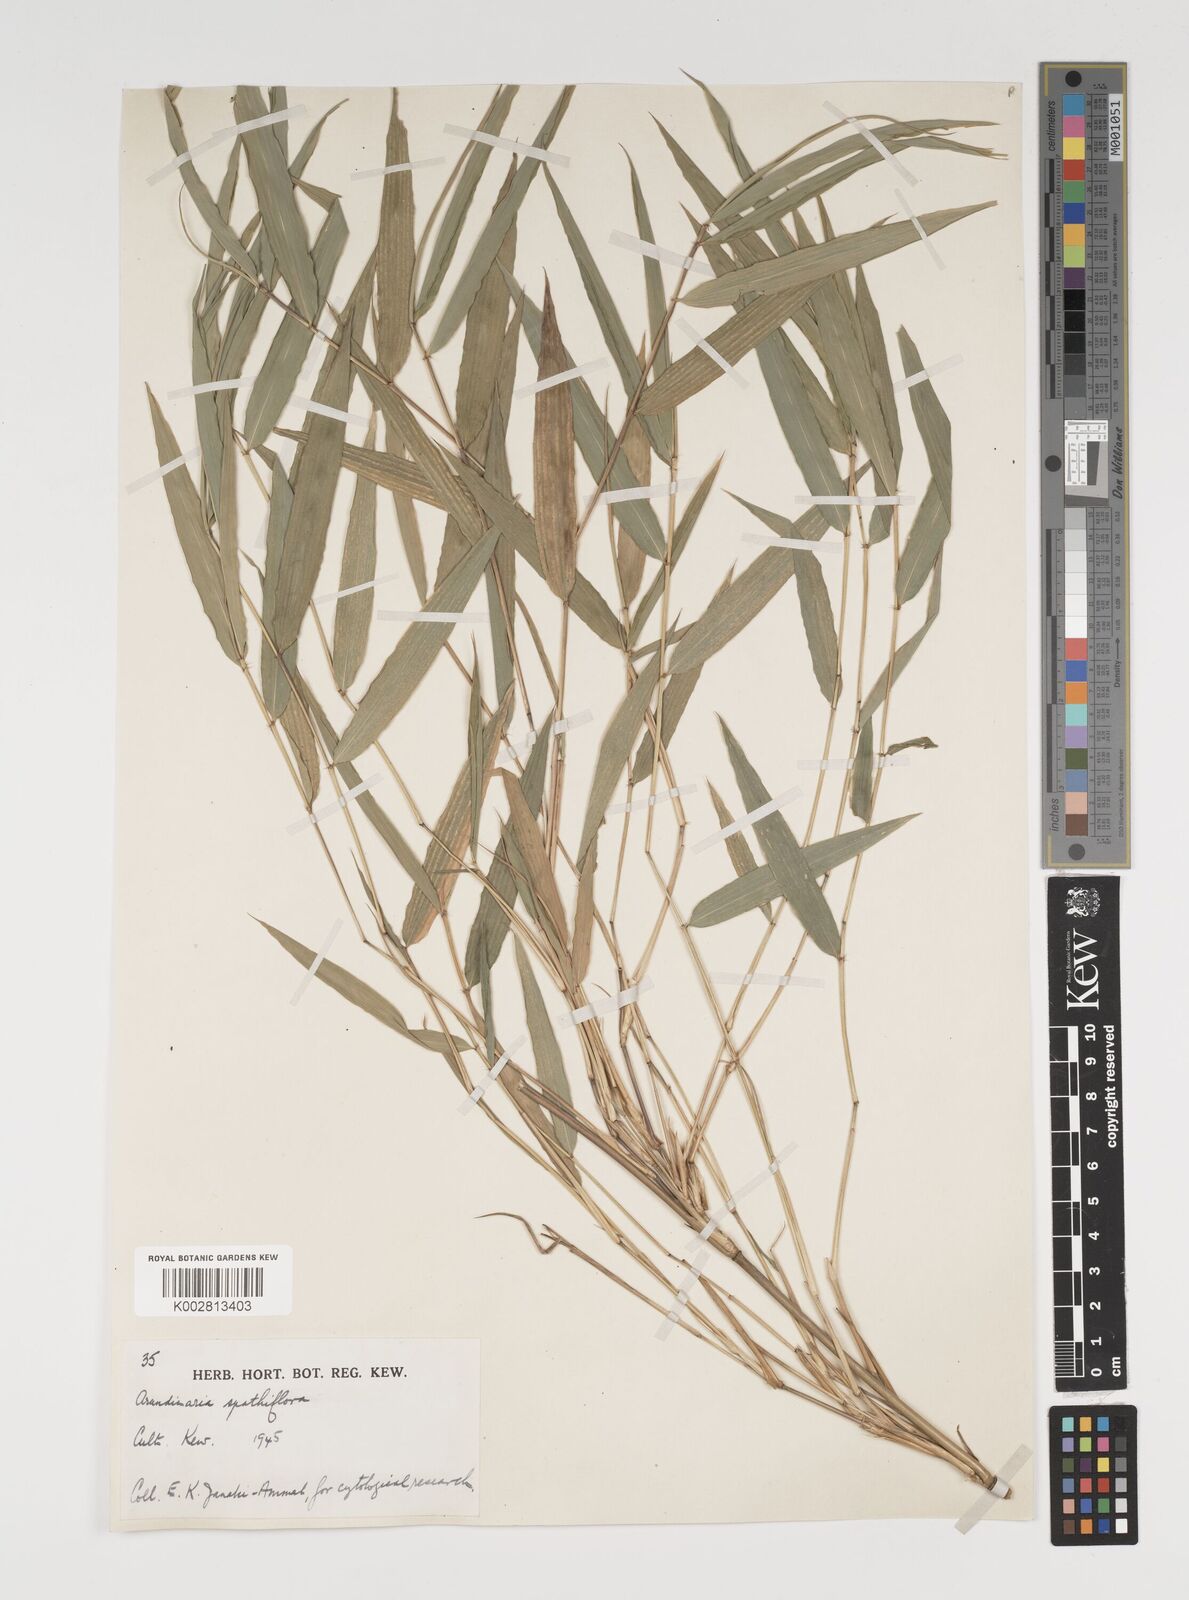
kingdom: Plantae
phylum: Tracheophyta
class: Liliopsida
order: Poales
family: Poaceae
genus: Thamnocalamus
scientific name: Thamnocalamus spathiflorus
